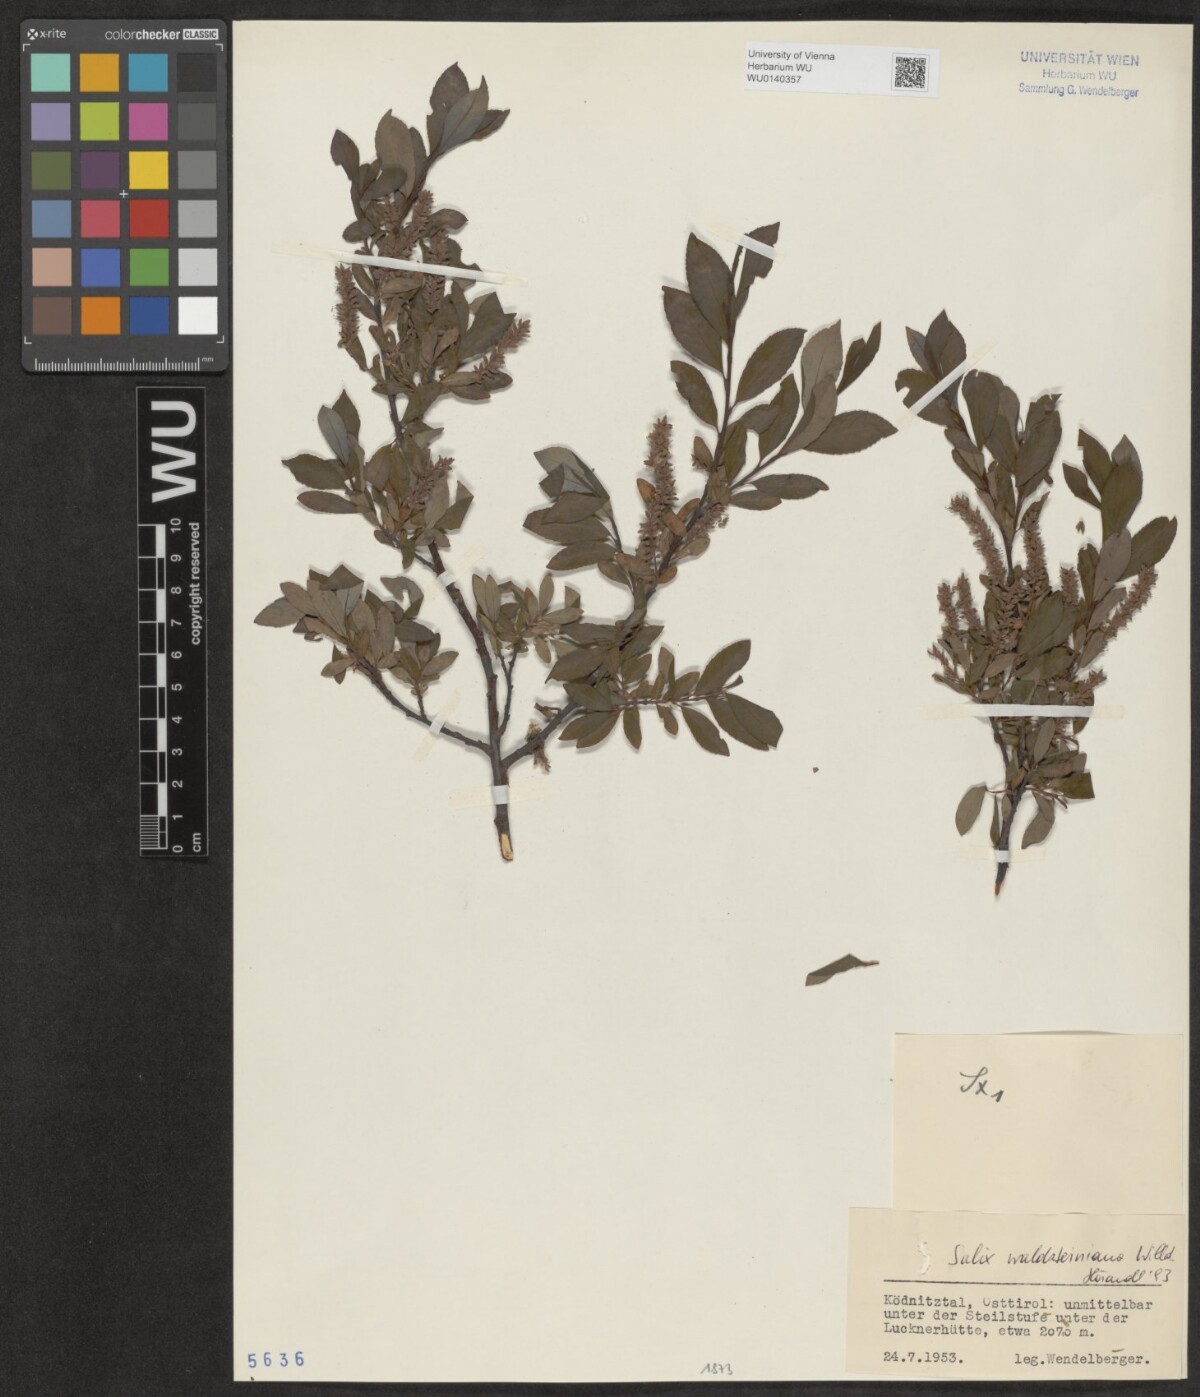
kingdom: Plantae
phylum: Tracheophyta
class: Magnoliopsida
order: Malpighiales
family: Salicaceae
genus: Salix
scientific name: Salix waldsteiniana
